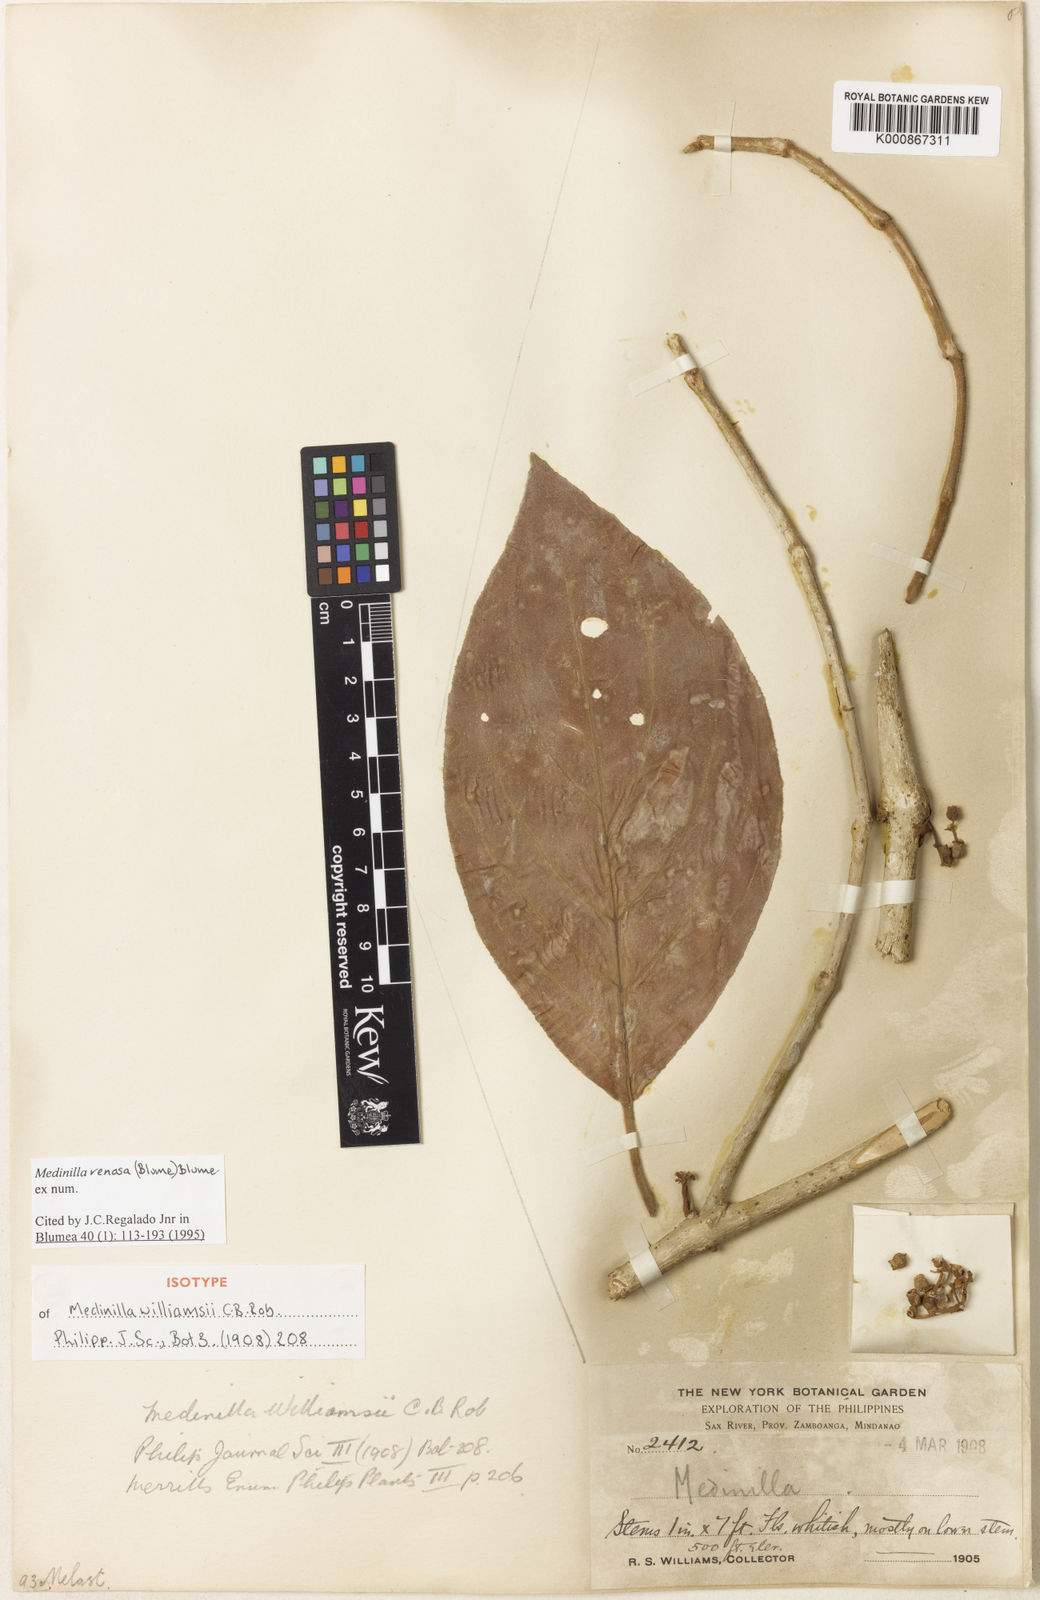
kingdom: Plantae
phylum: Tracheophyta
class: Magnoliopsida
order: Myrtales
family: Melastomataceae
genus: Medinilla
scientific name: Medinilla venosa
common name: Holdtight
